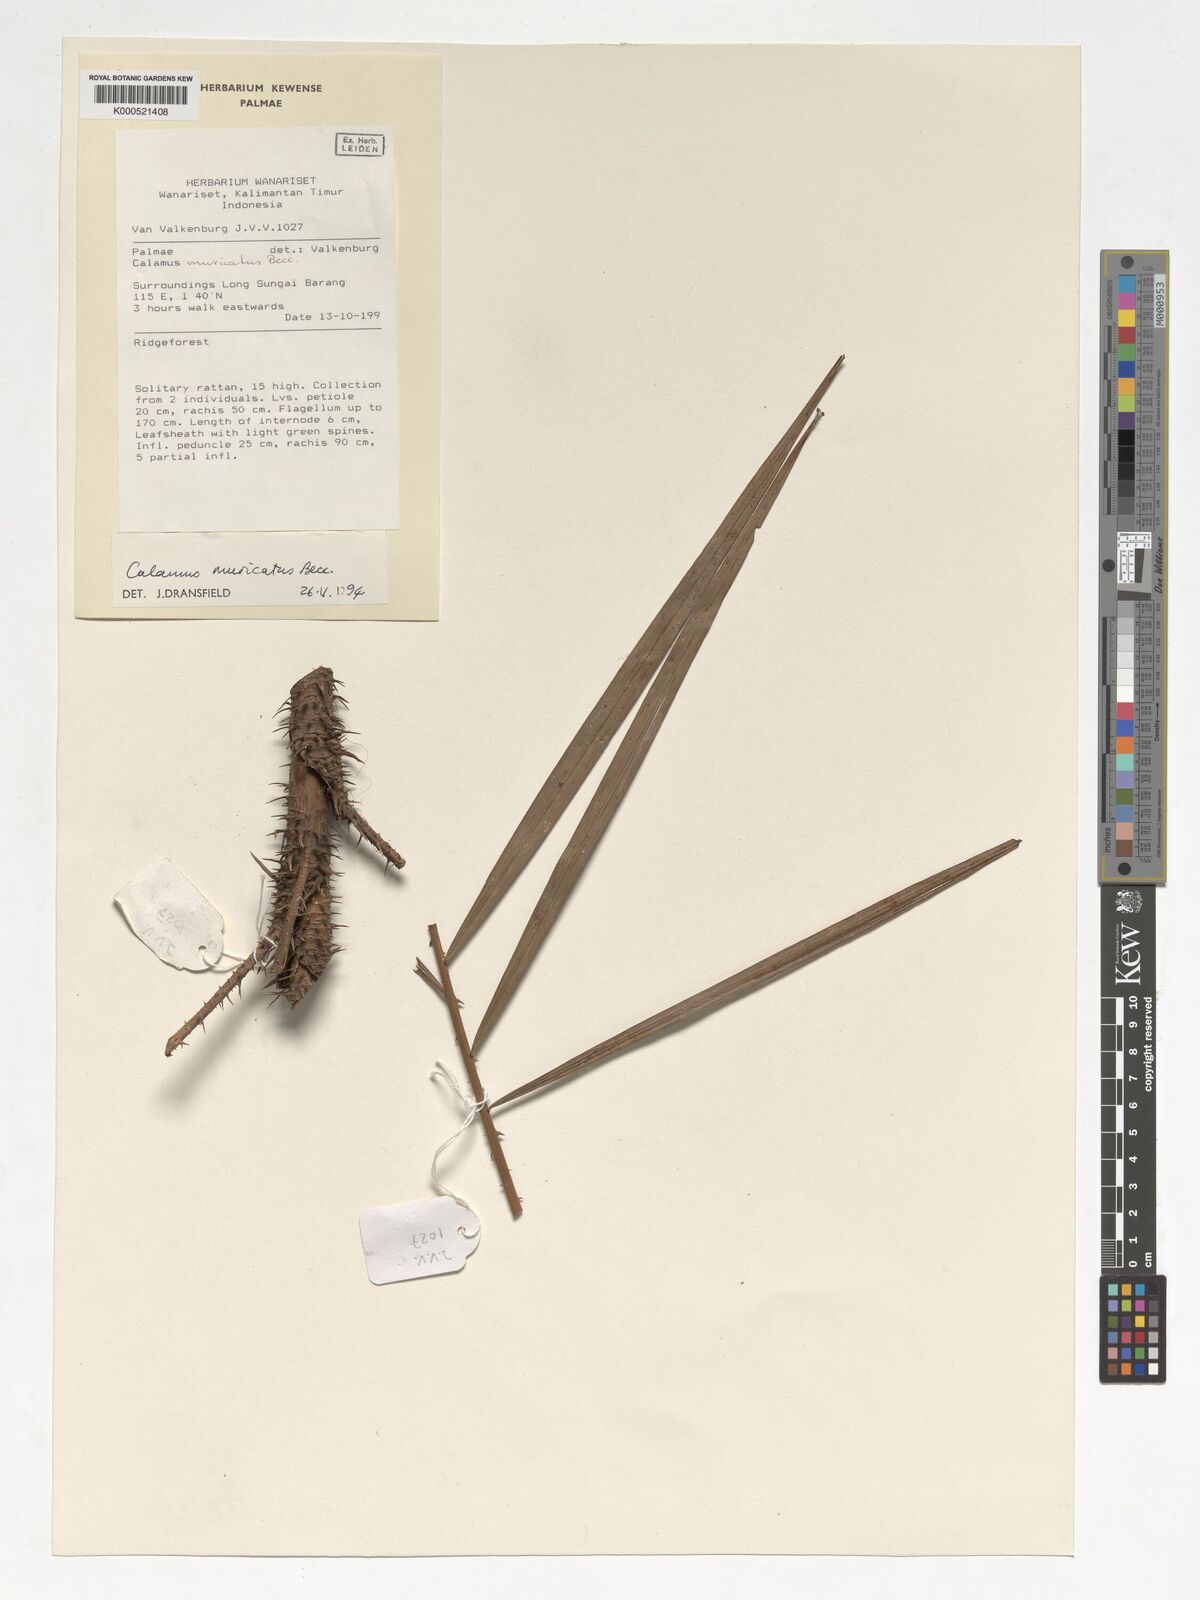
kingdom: Plantae
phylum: Tracheophyta
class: Liliopsida
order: Arecales
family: Arecaceae
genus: Calamus
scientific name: Calamus muricatus
